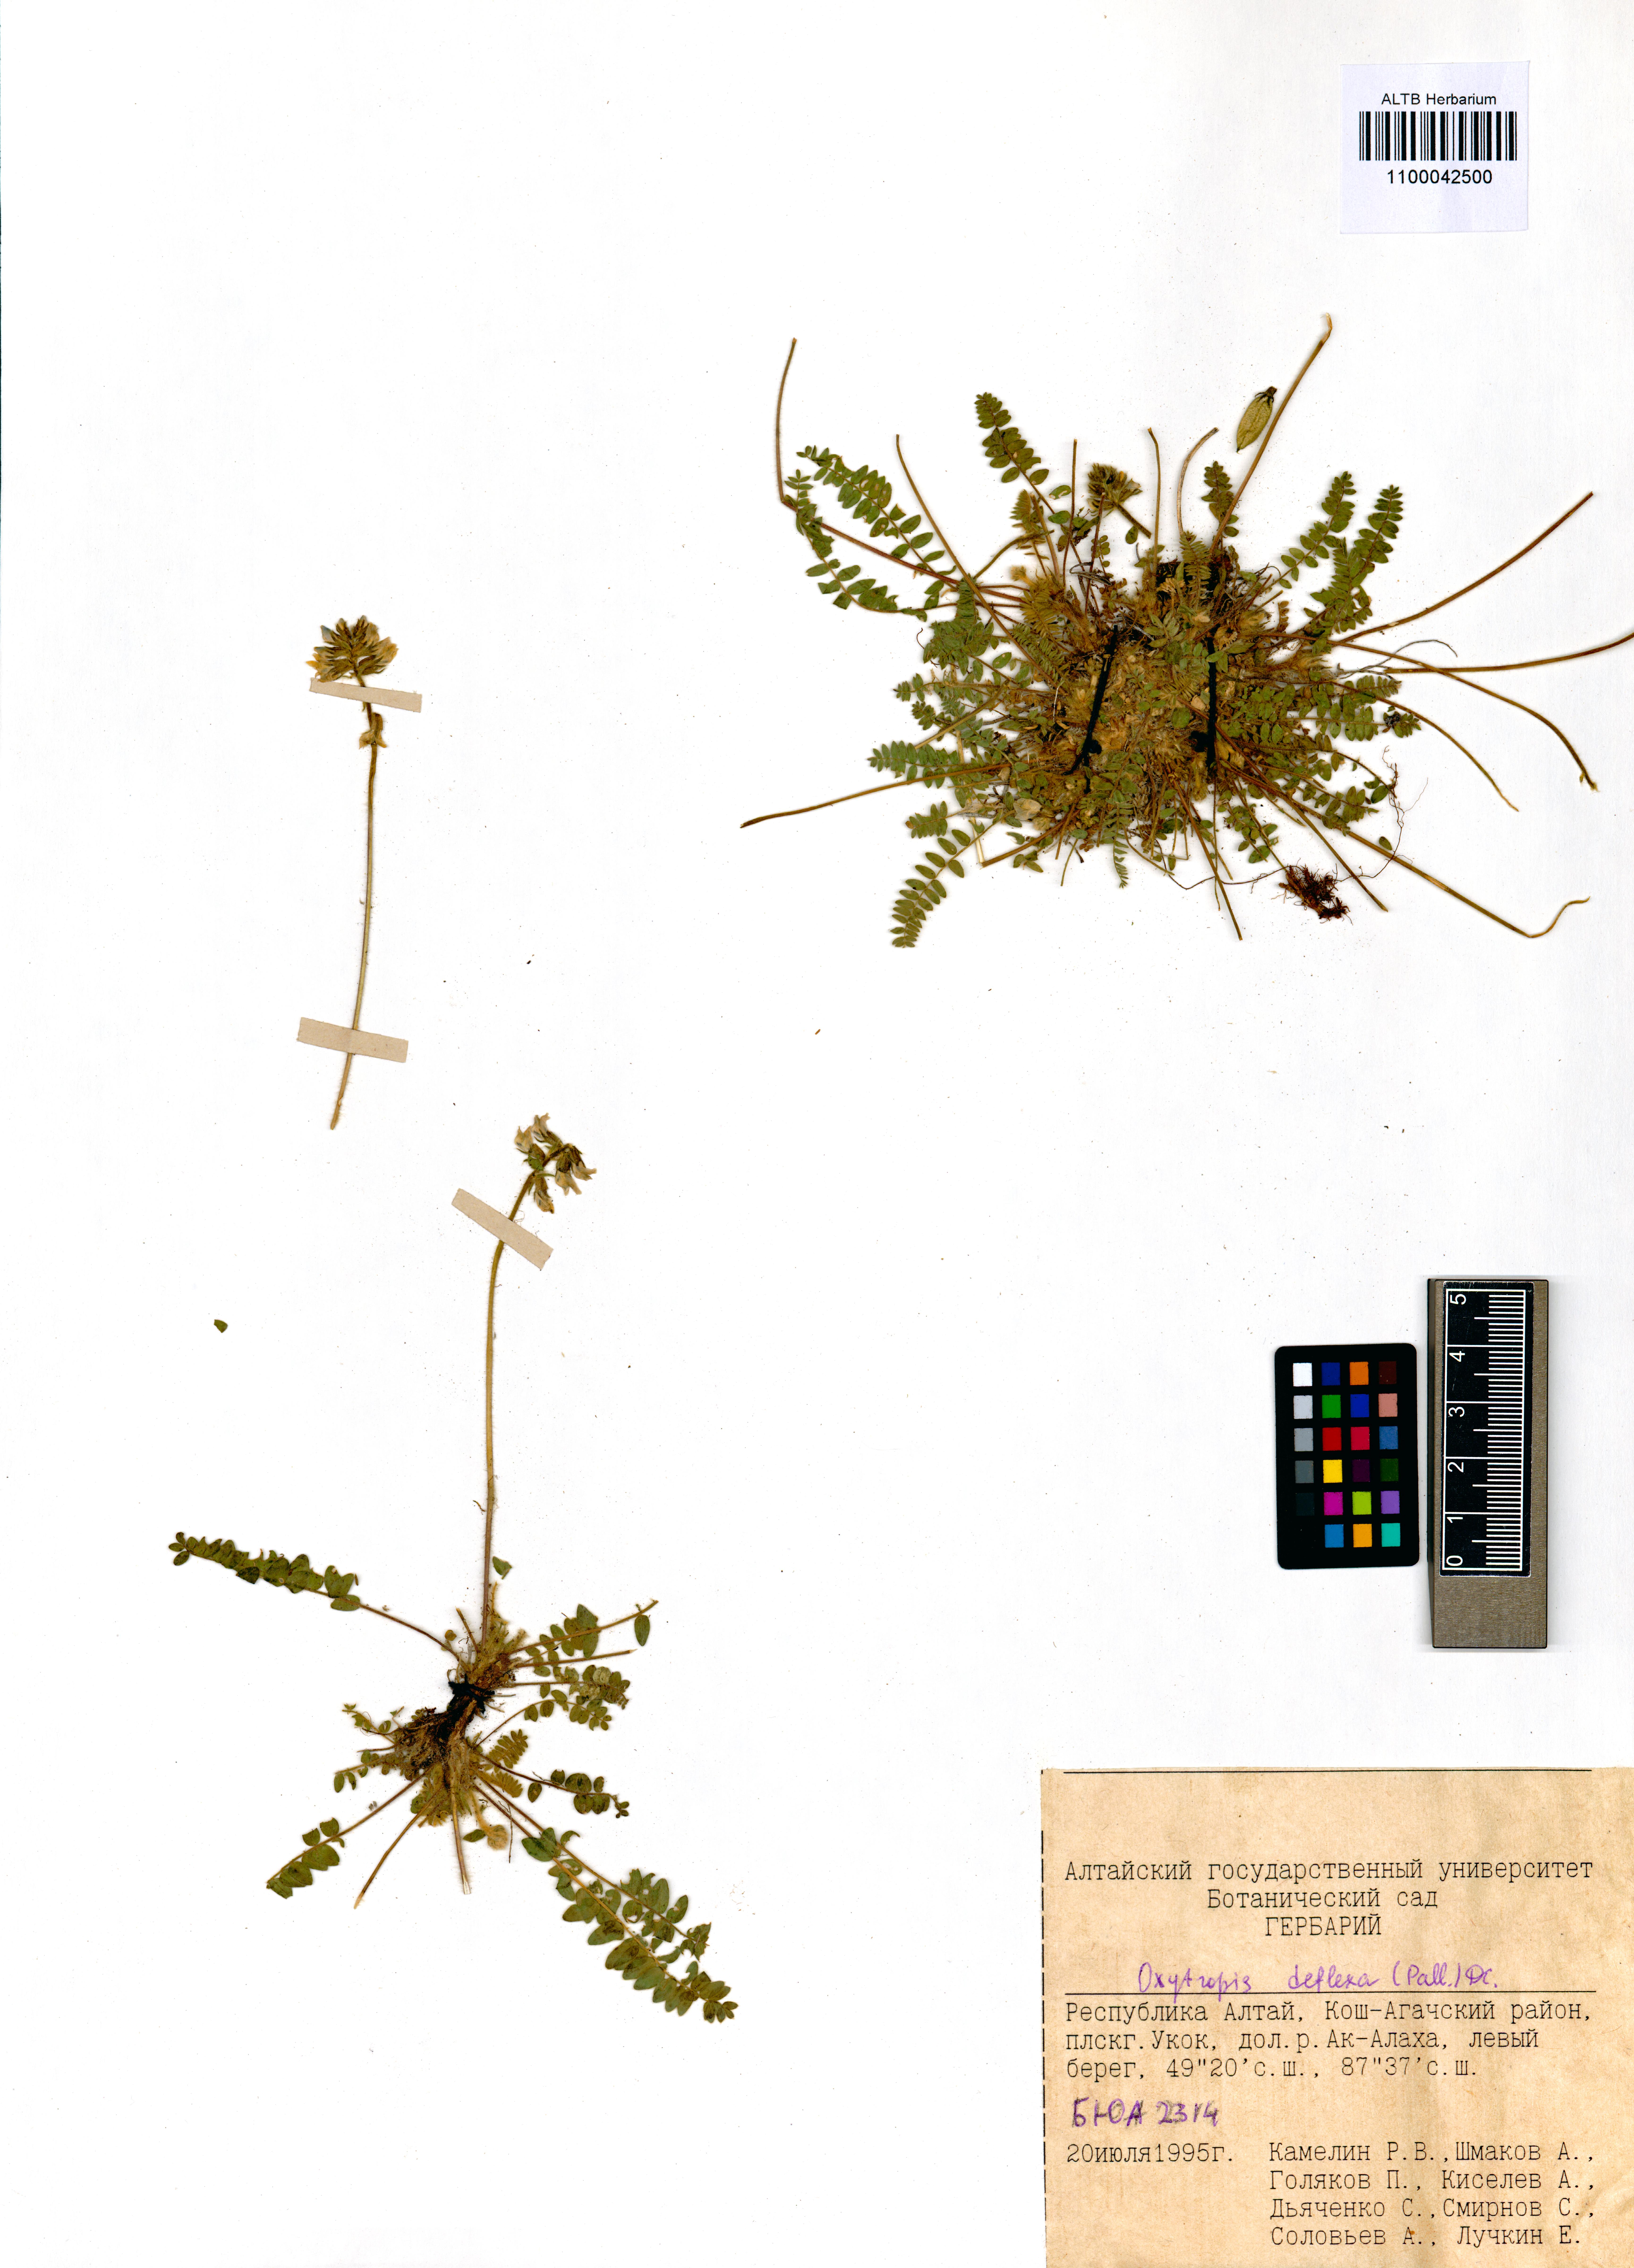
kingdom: Plantae
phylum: Tracheophyta
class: Magnoliopsida
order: Fabales
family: Fabaceae
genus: Oxytropis
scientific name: Oxytropis deflexa
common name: Stemmed oxytrope
